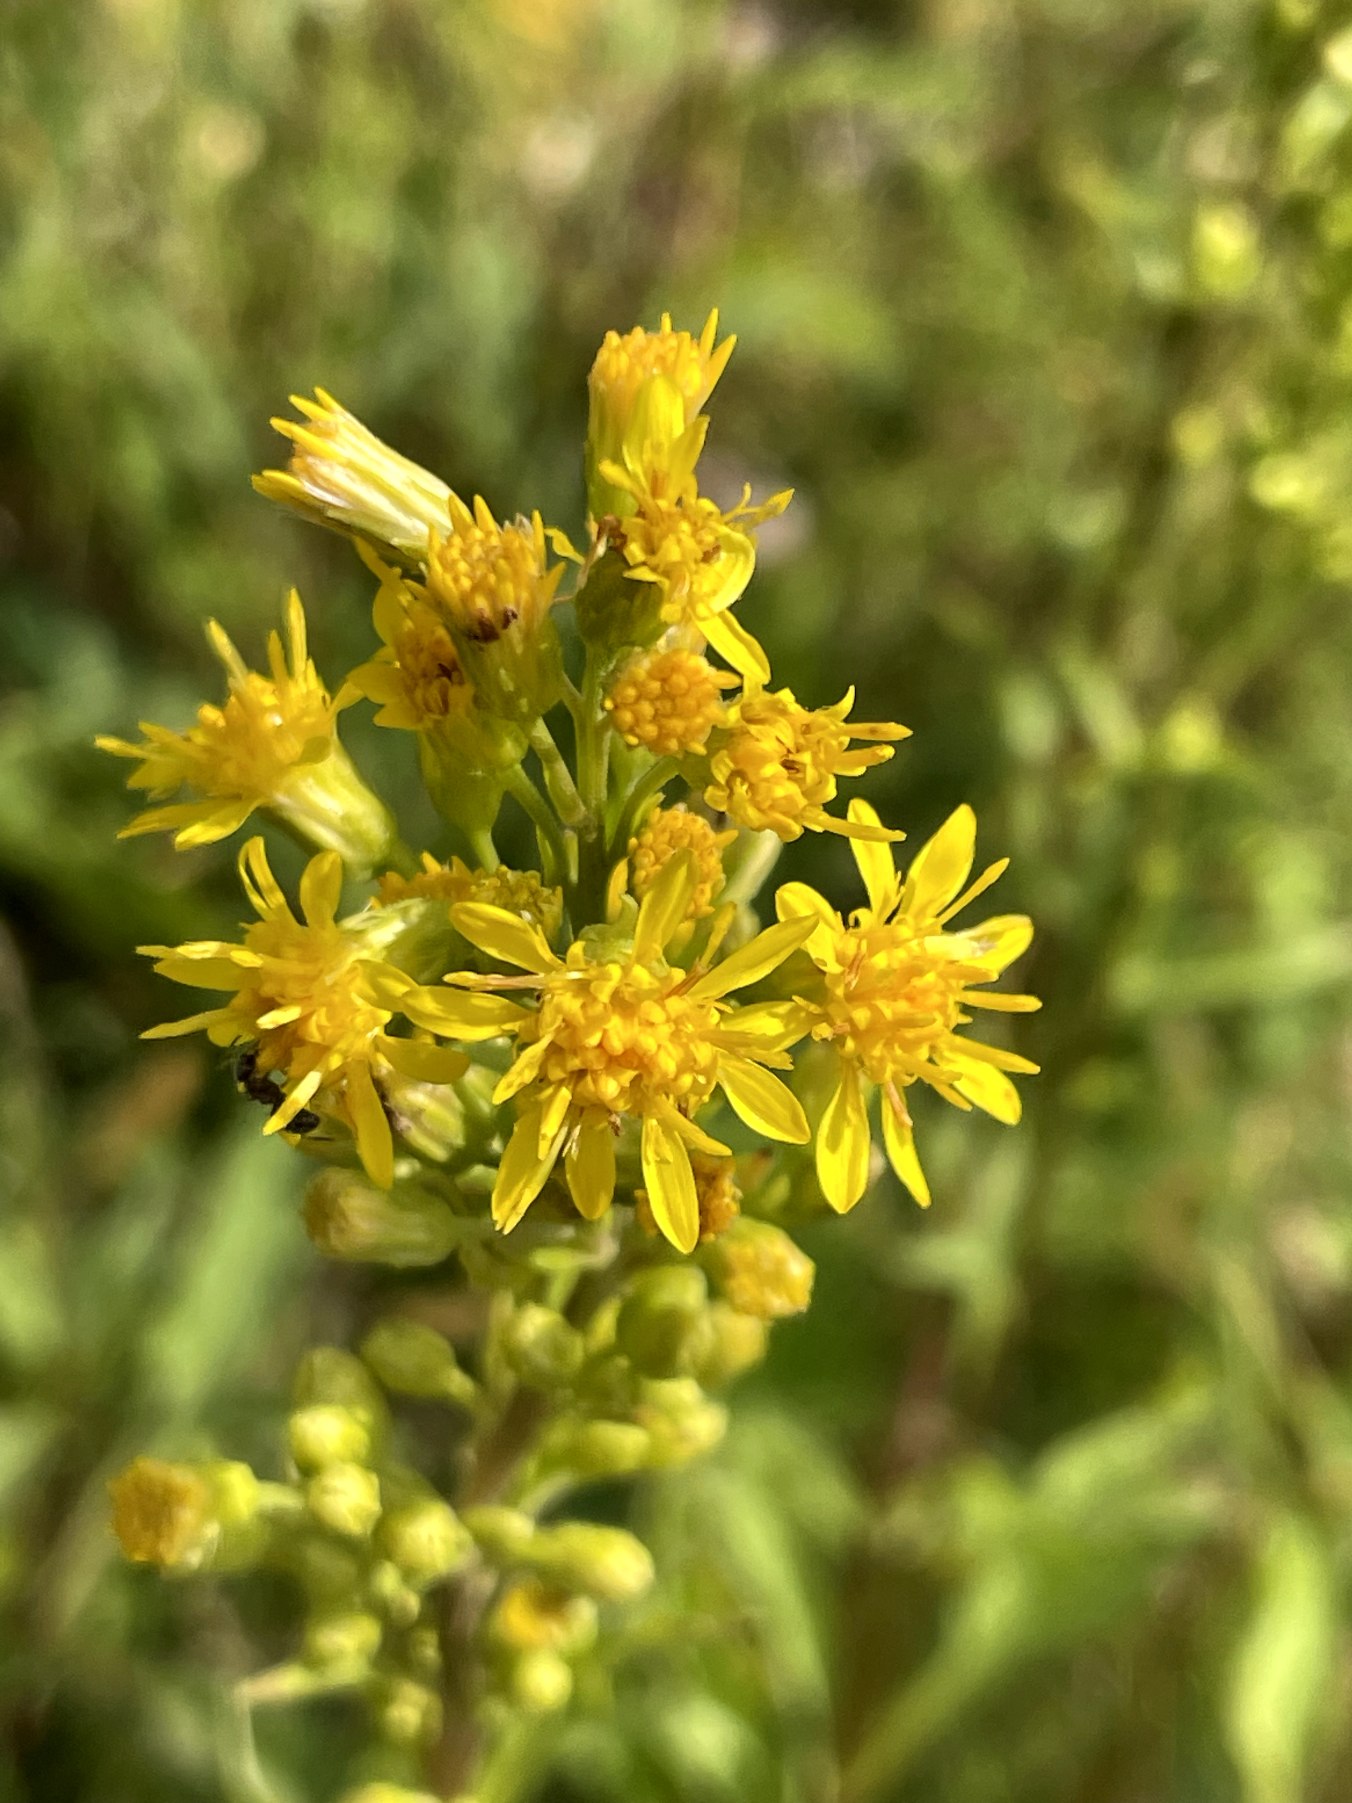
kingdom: Plantae
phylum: Tracheophyta
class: Magnoliopsida
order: Asterales
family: Asteraceae
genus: Solidago
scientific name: Solidago virgaurea
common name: Almindelig gyldenris
